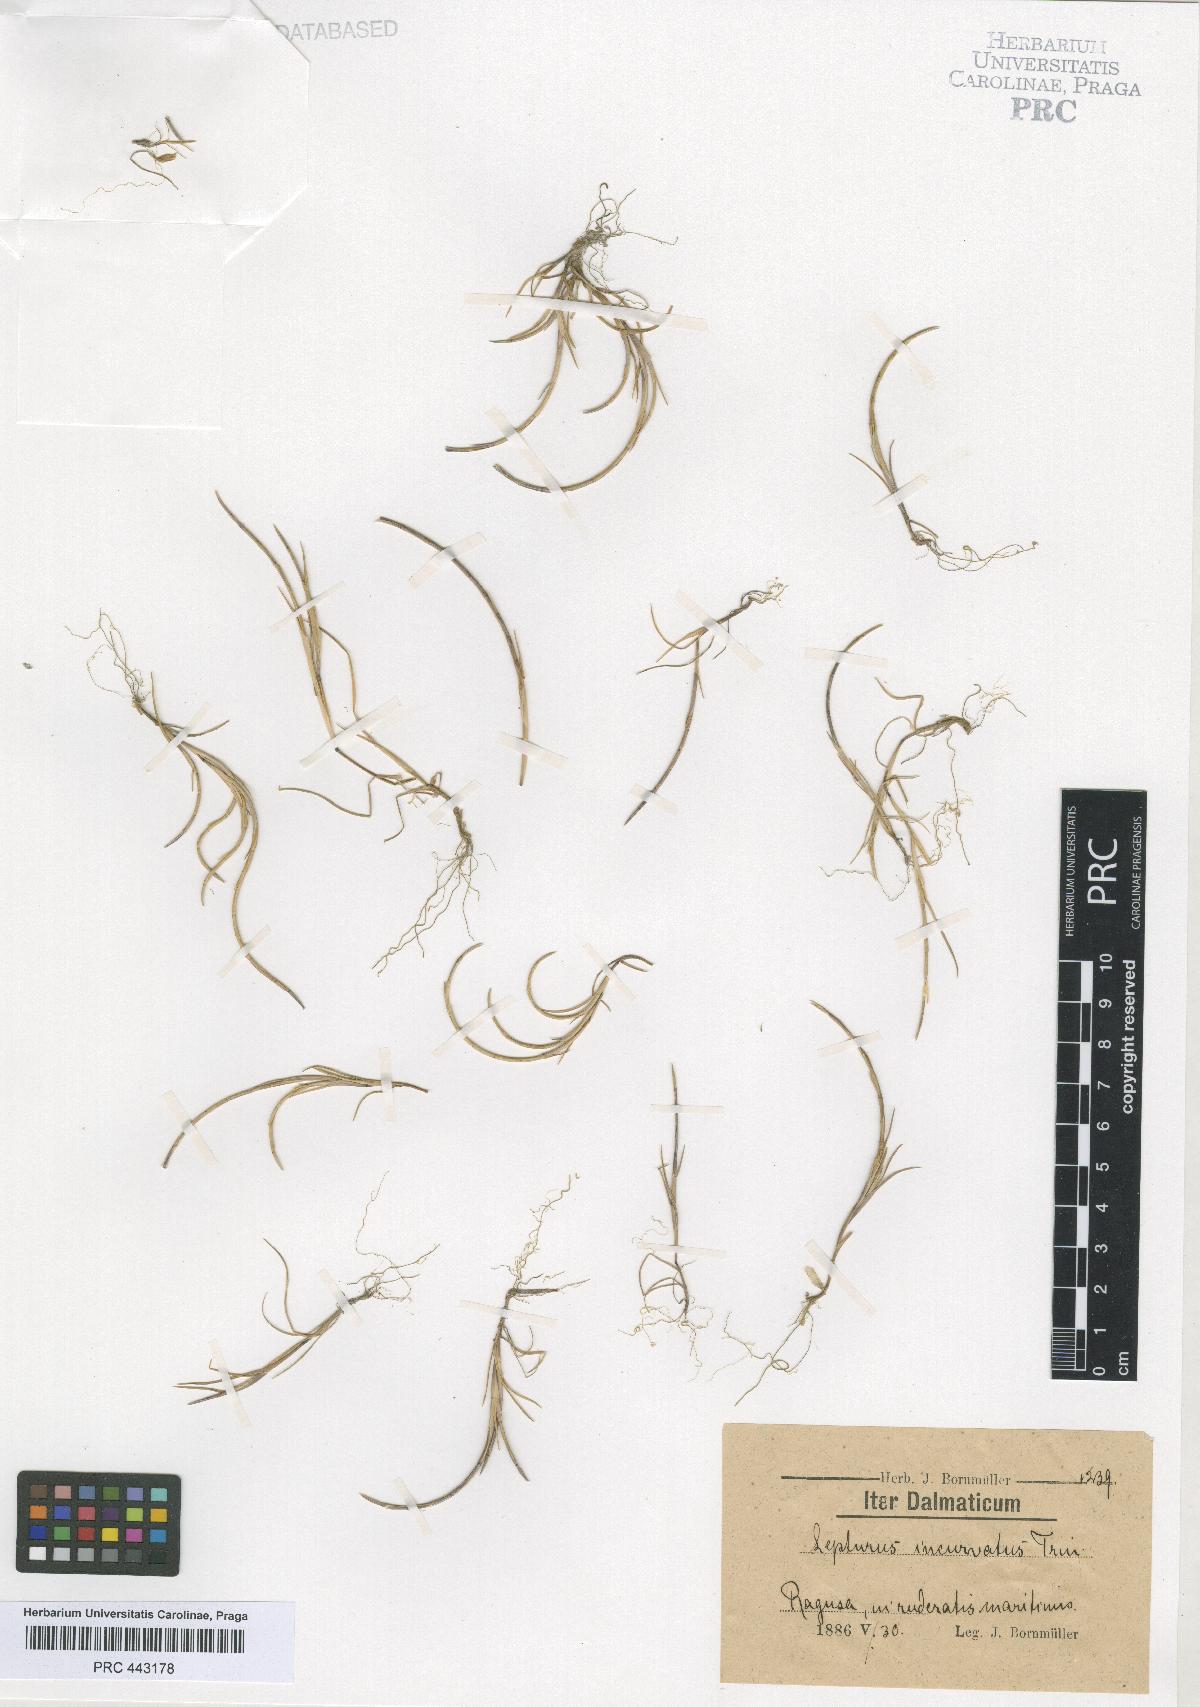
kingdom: Plantae
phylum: Tracheophyta
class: Liliopsida
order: Poales
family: Poaceae
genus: Parapholis
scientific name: Parapholis incurva
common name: Curved sicklegrass
